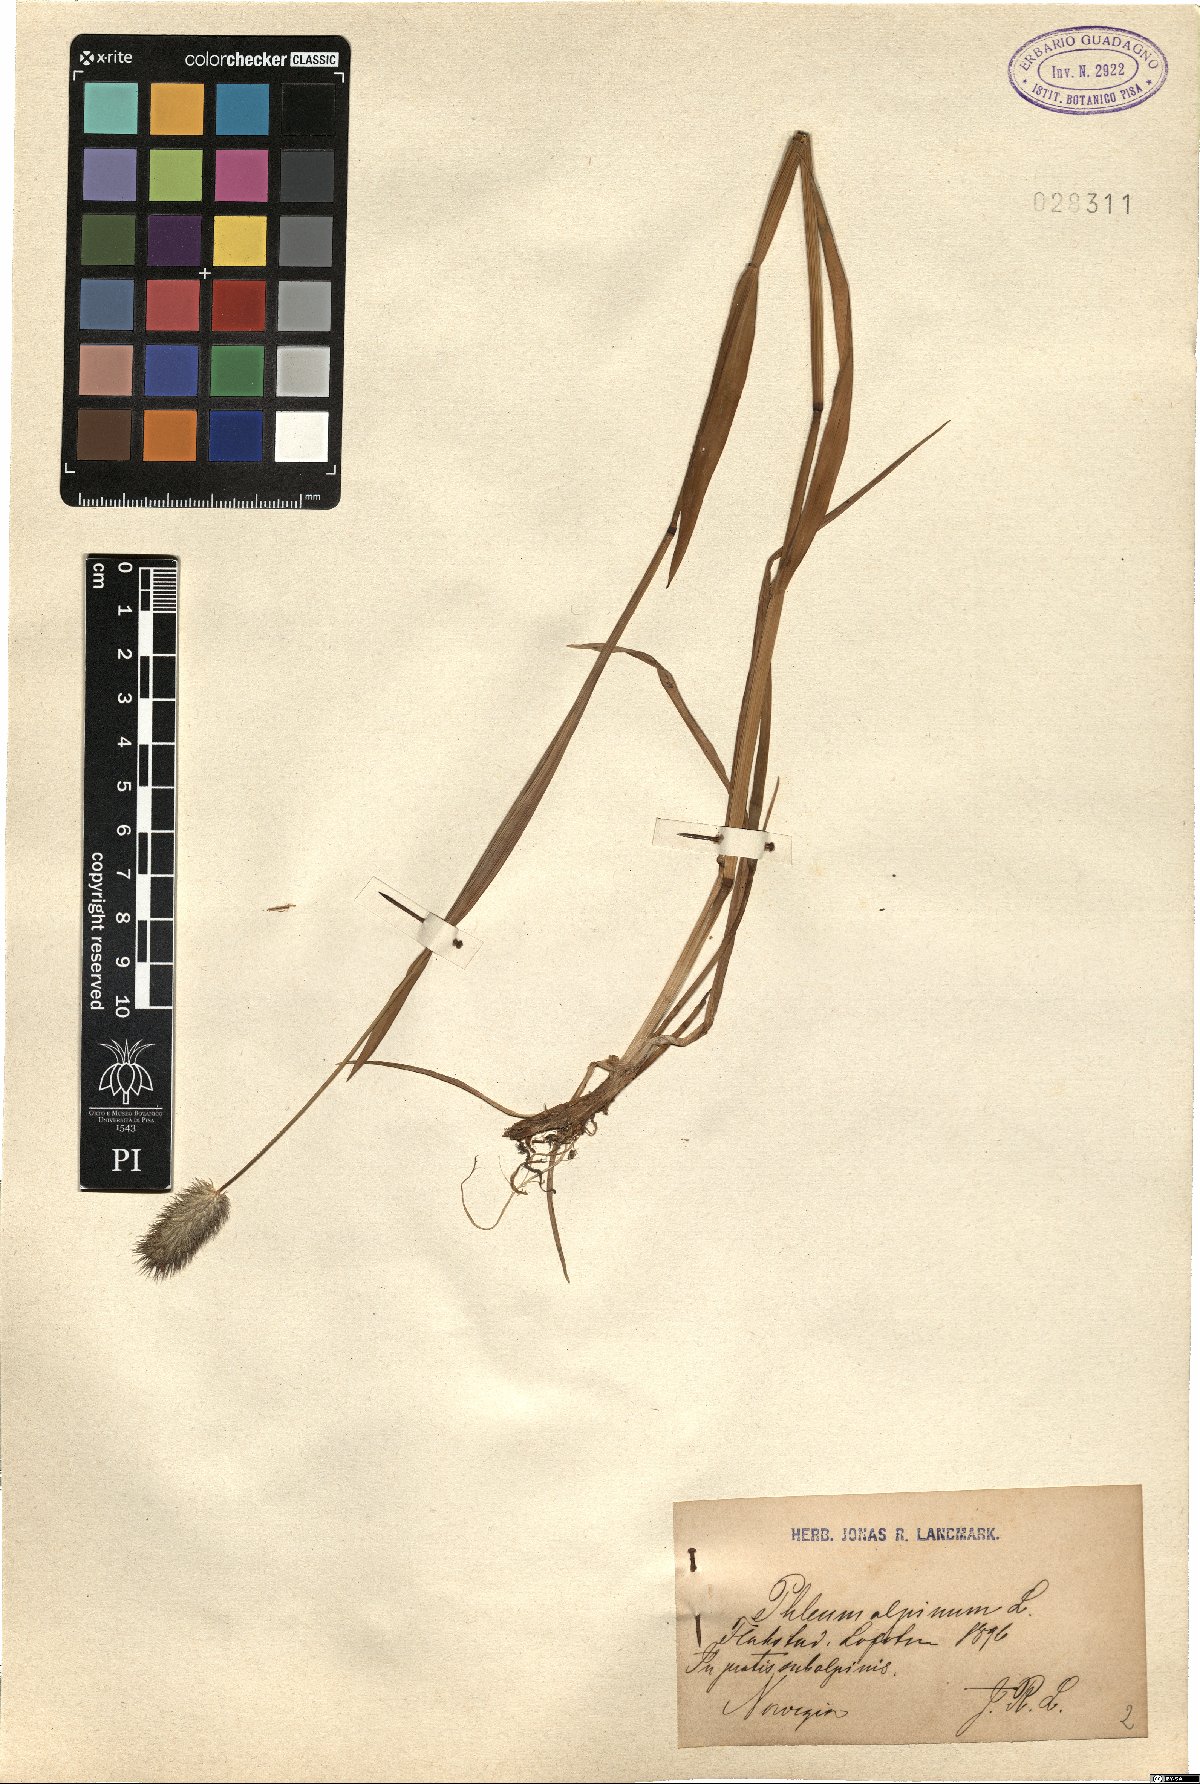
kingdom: Plantae
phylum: Tracheophyta
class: Liliopsida
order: Poales
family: Poaceae
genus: Phleum
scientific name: Phleum alpinum
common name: Alpine cat's-tail
